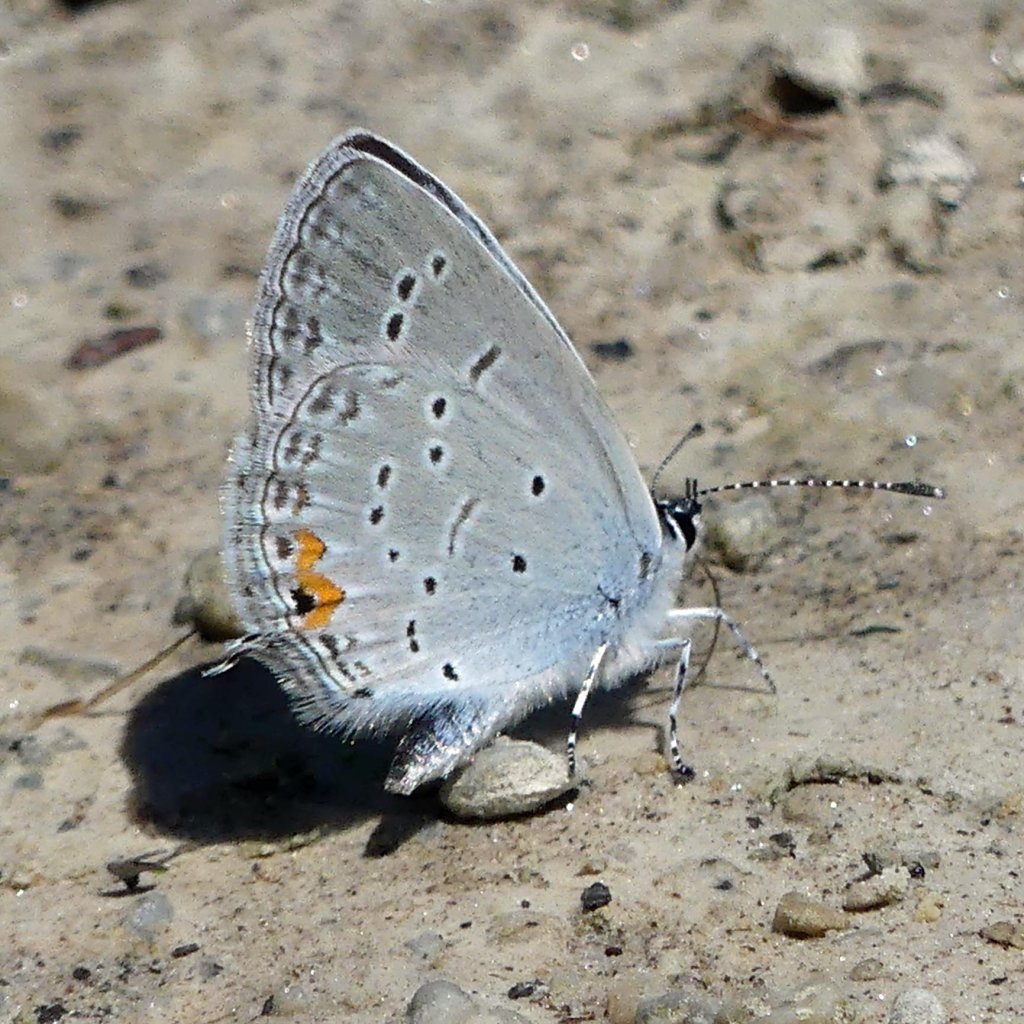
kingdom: Animalia
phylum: Arthropoda
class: Insecta
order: Lepidoptera
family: Lycaenidae
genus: Elkalyce
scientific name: Elkalyce comyntas
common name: Eastern Tailed-Blue
